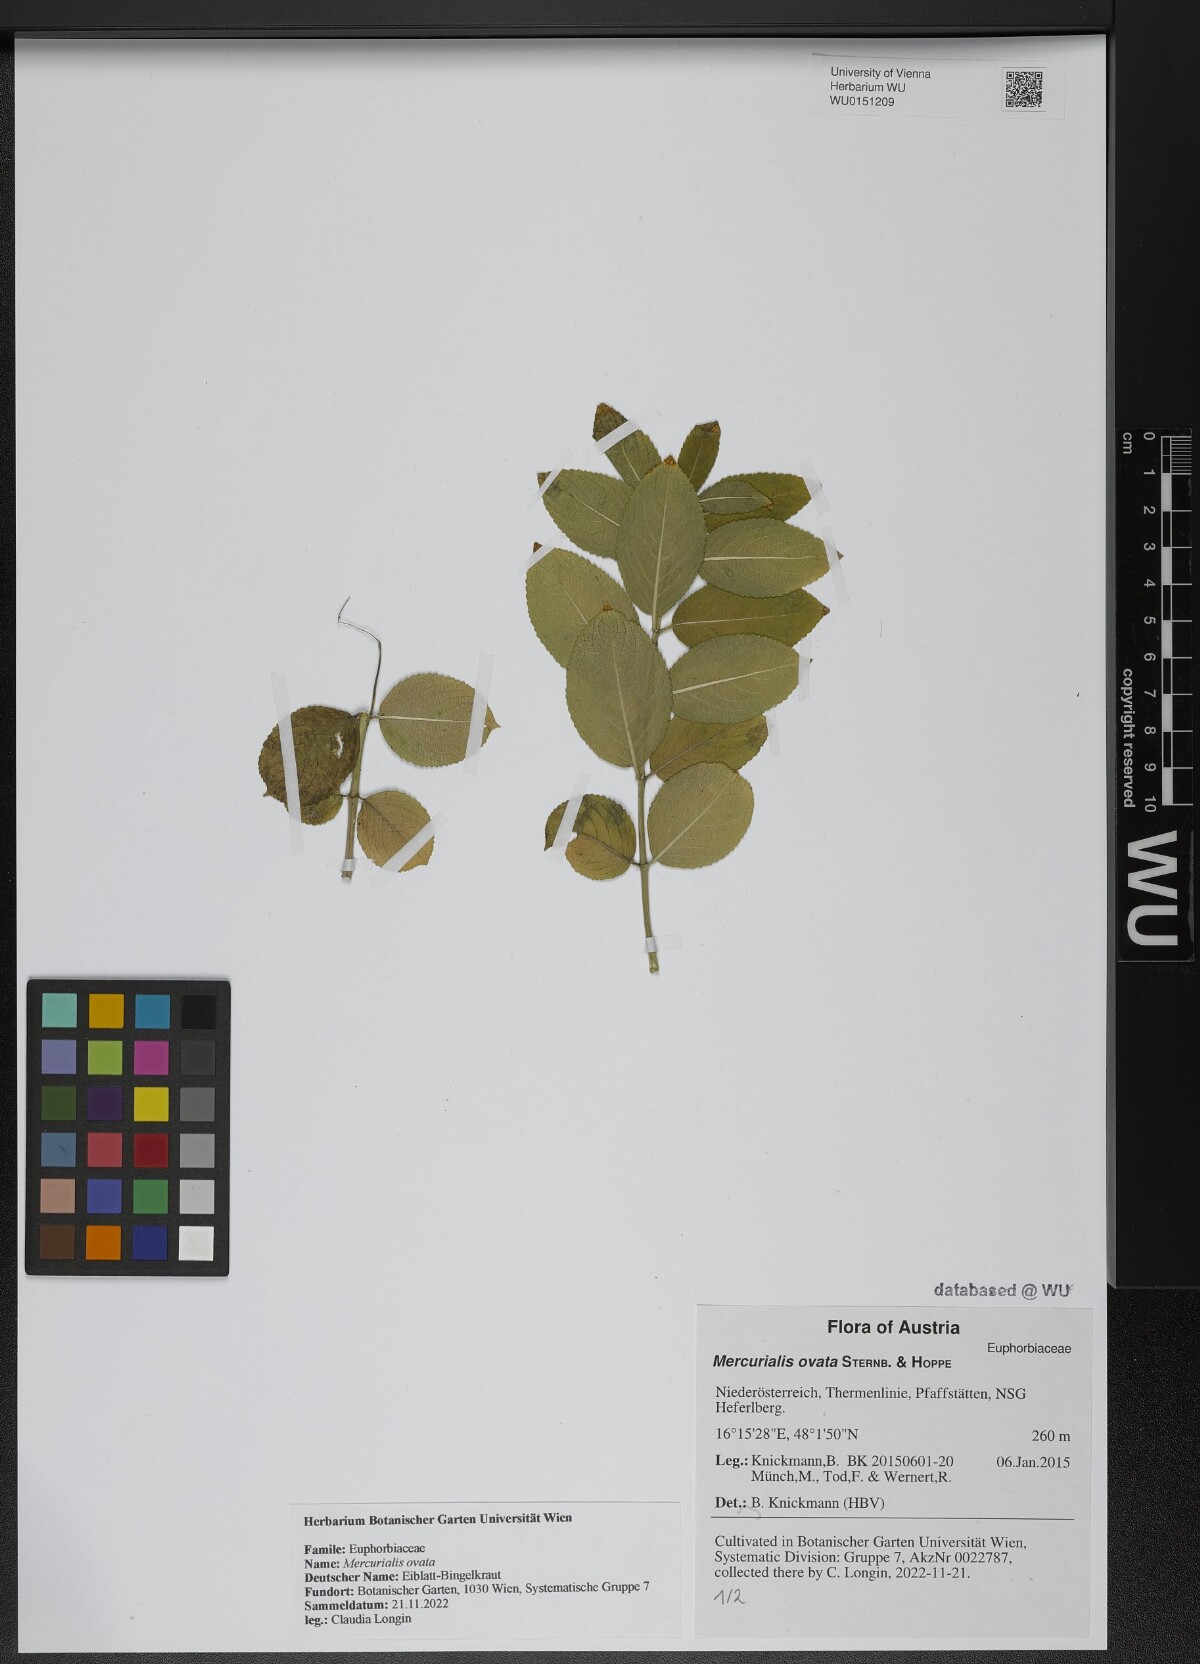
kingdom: Plantae
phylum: Tracheophyta
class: Magnoliopsida
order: Malpighiales
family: Euphorbiaceae
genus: Mercurialis
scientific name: Mercurialis ovata
